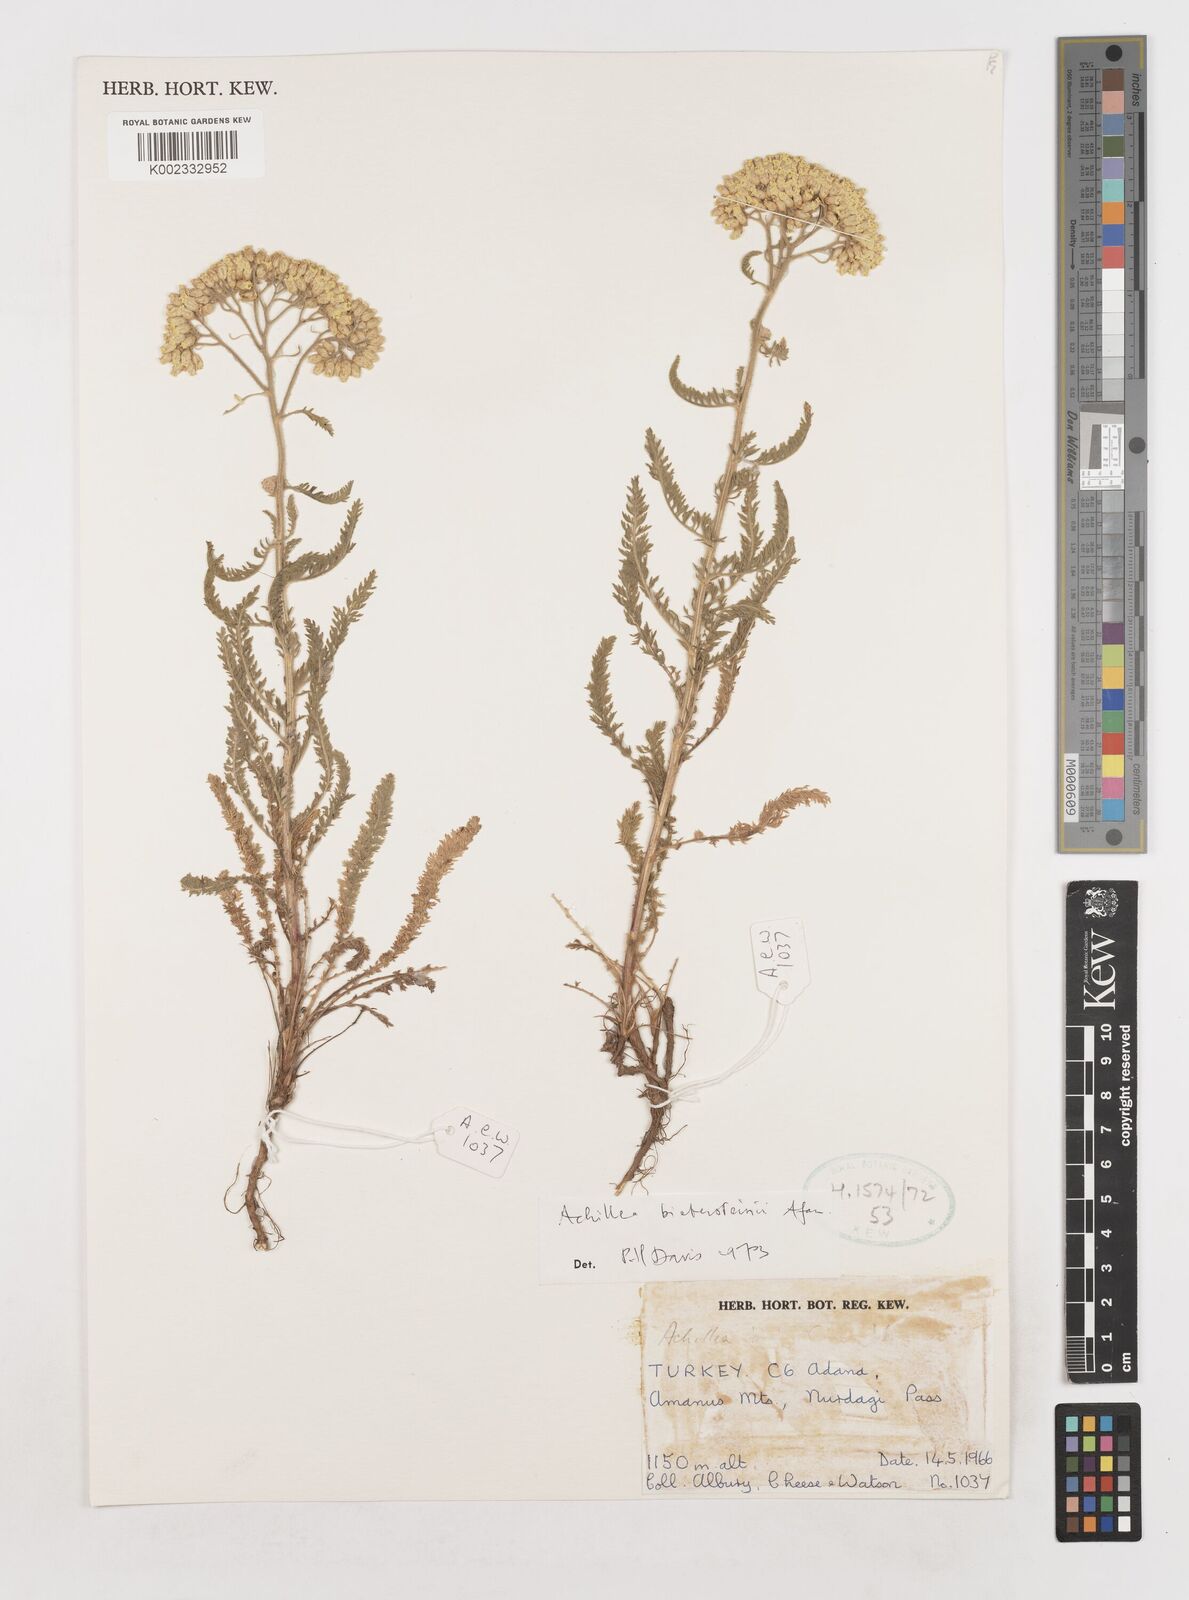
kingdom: Plantae
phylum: Tracheophyta
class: Magnoliopsida
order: Asterales
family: Asteraceae
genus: Achillea
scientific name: Achillea arabica
